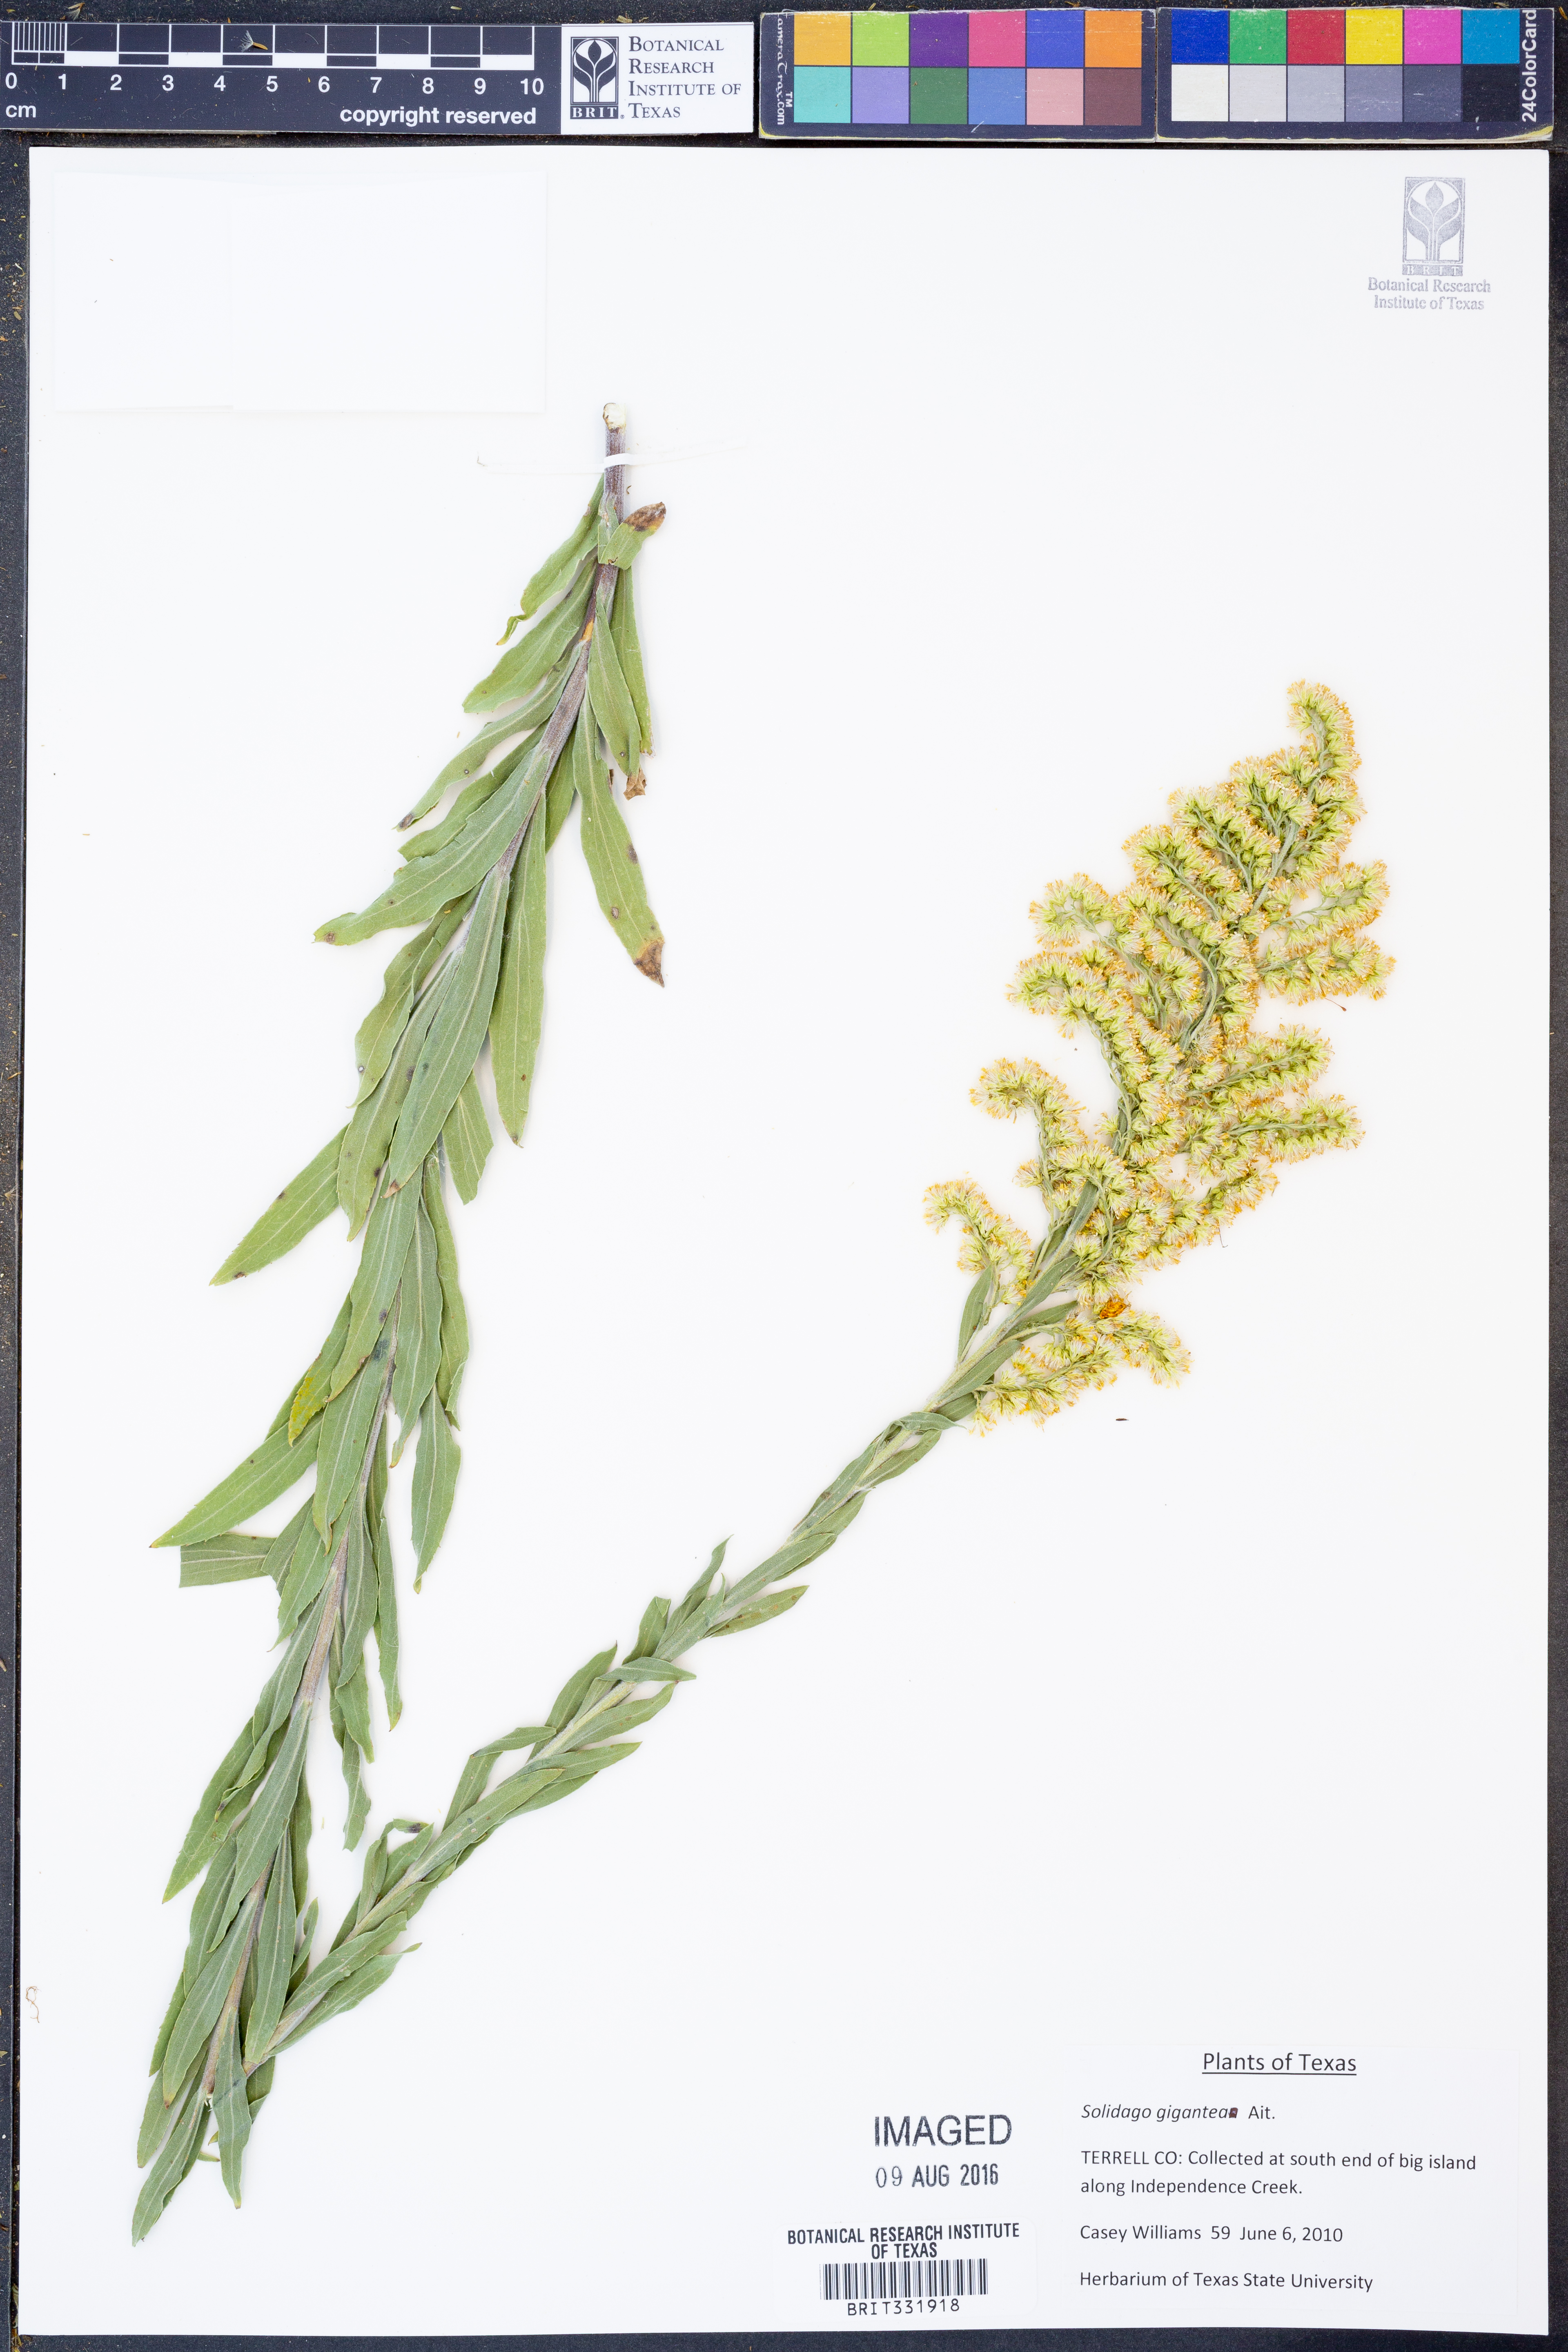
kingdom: Plantae
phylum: Tracheophyta
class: Magnoliopsida
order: Asterales
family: Asteraceae
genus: Solidago
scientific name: Solidago gigantea
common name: Giant goldenrod
